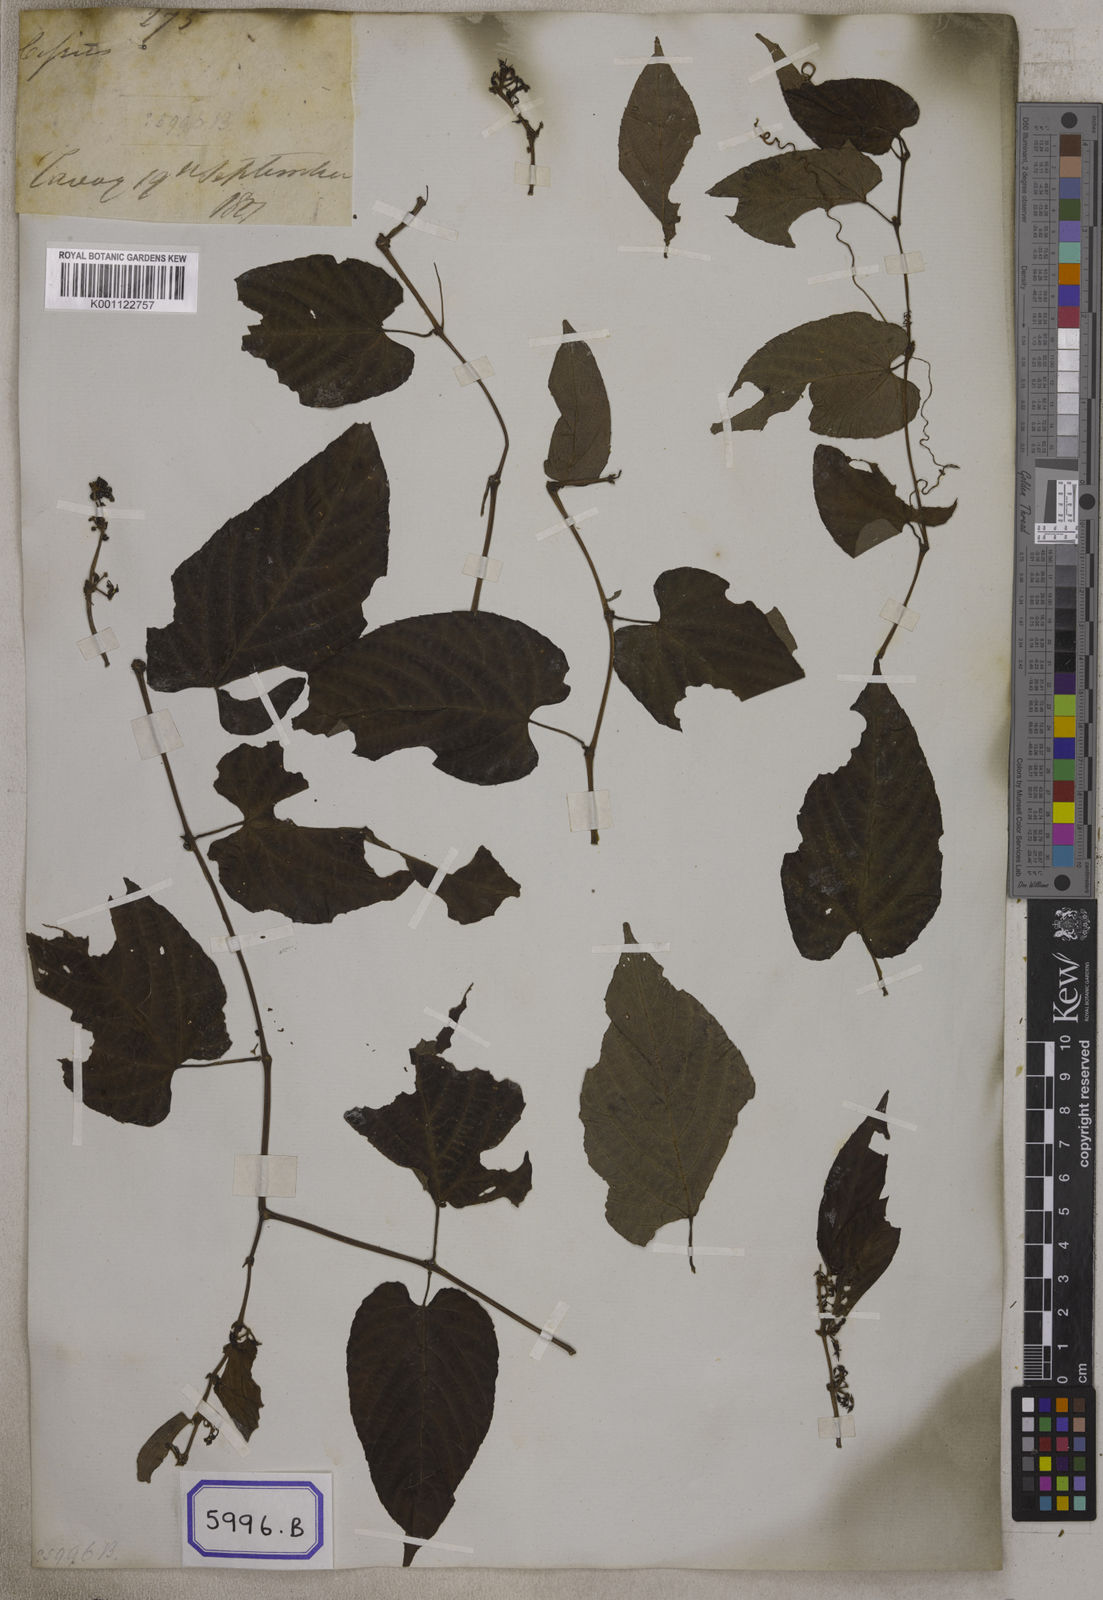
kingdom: Plantae
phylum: Tracheophyta
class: Magnoliopsida
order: Vitales
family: Vitaceae
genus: Cissus
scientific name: Cissus discolor
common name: Climbing-begonia
